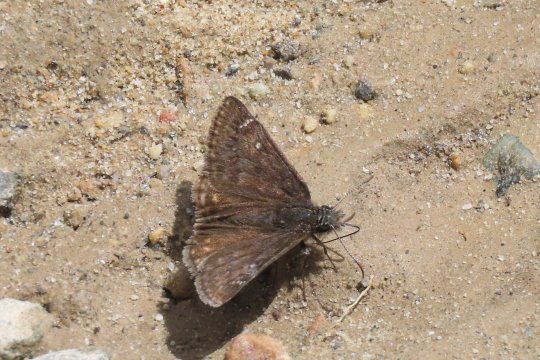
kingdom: Animalia
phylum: Arthropoda
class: Insecta
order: Lepidoptera
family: Hesperiidae
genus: Gesta
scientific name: Gesta
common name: Persius Duskywing
